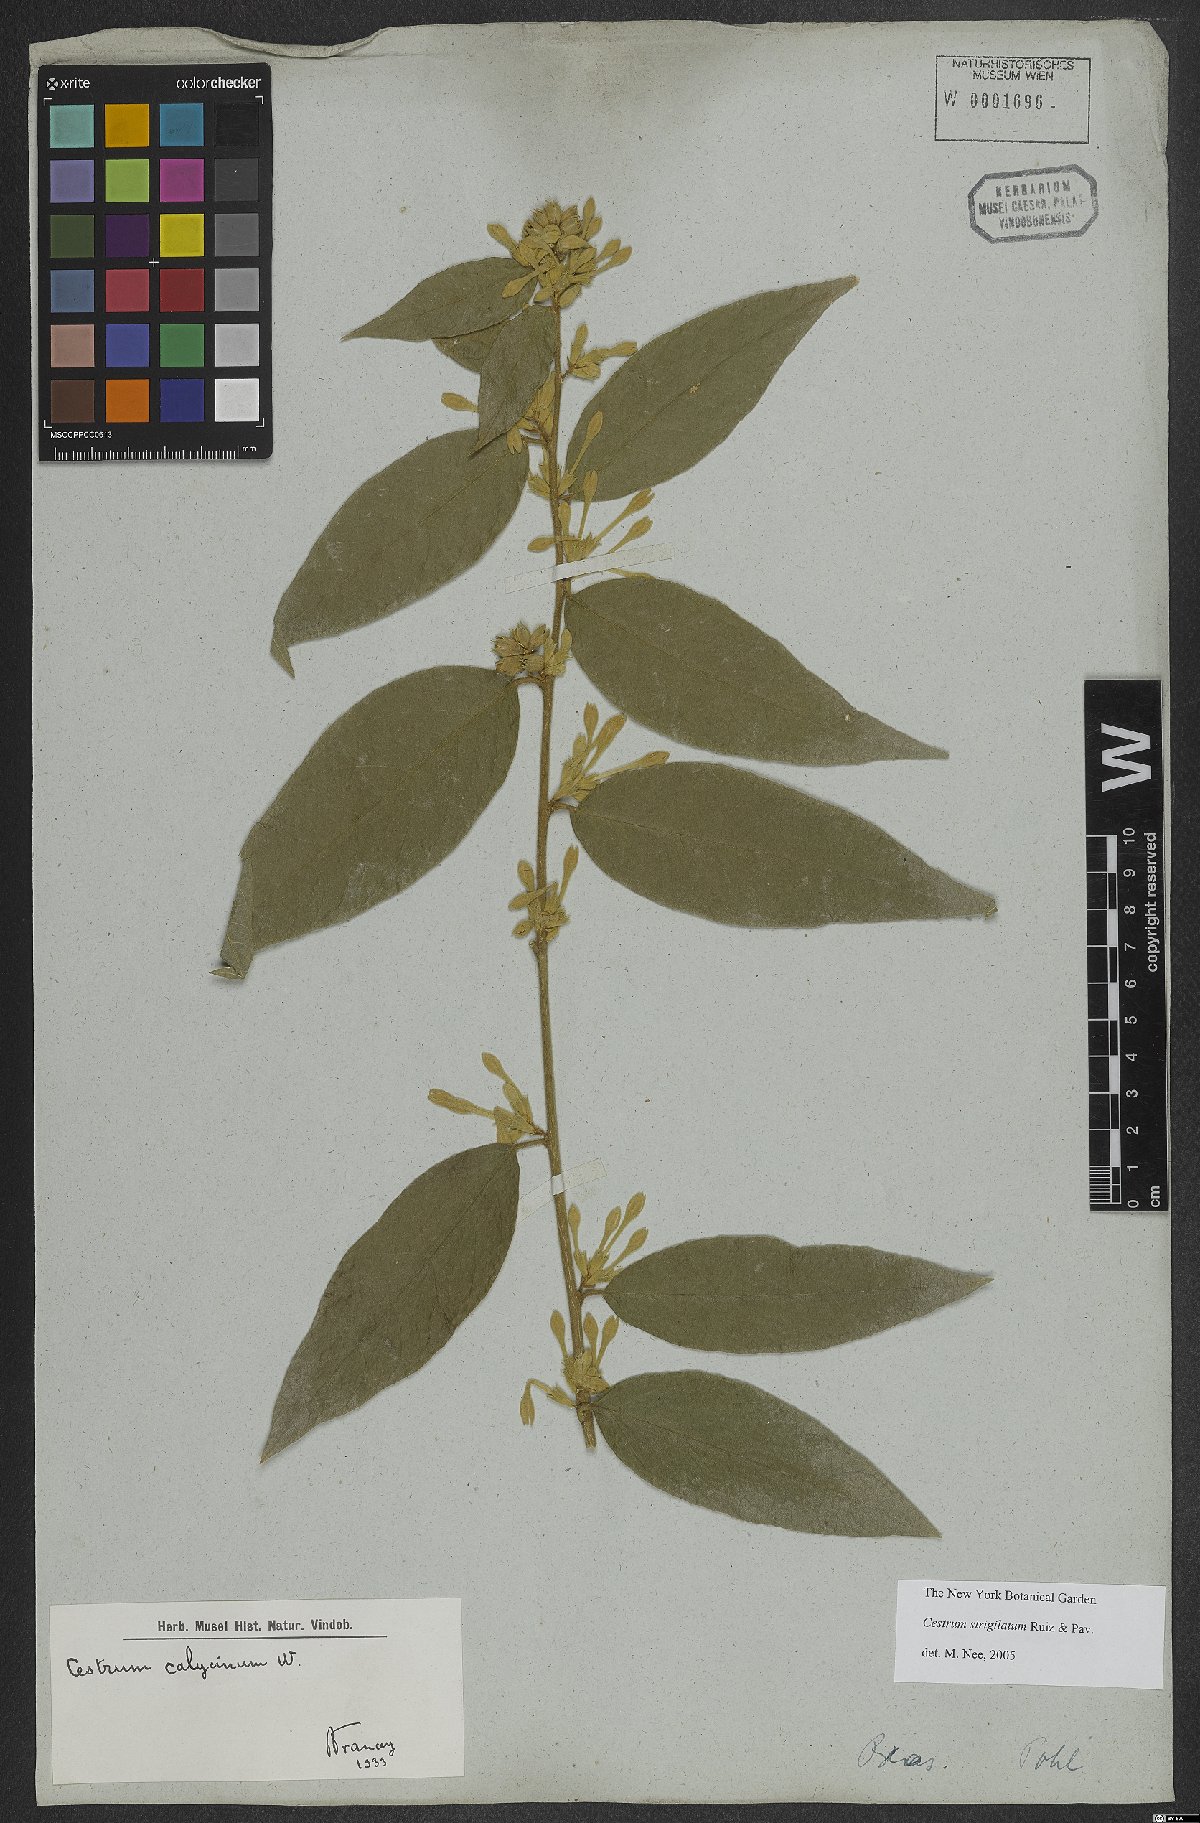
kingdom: Plantae
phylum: Tracheophyta
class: Magnoliopsida
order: Solanales
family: Solanaceae
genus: Cestrum
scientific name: Cestrum strigillatum
